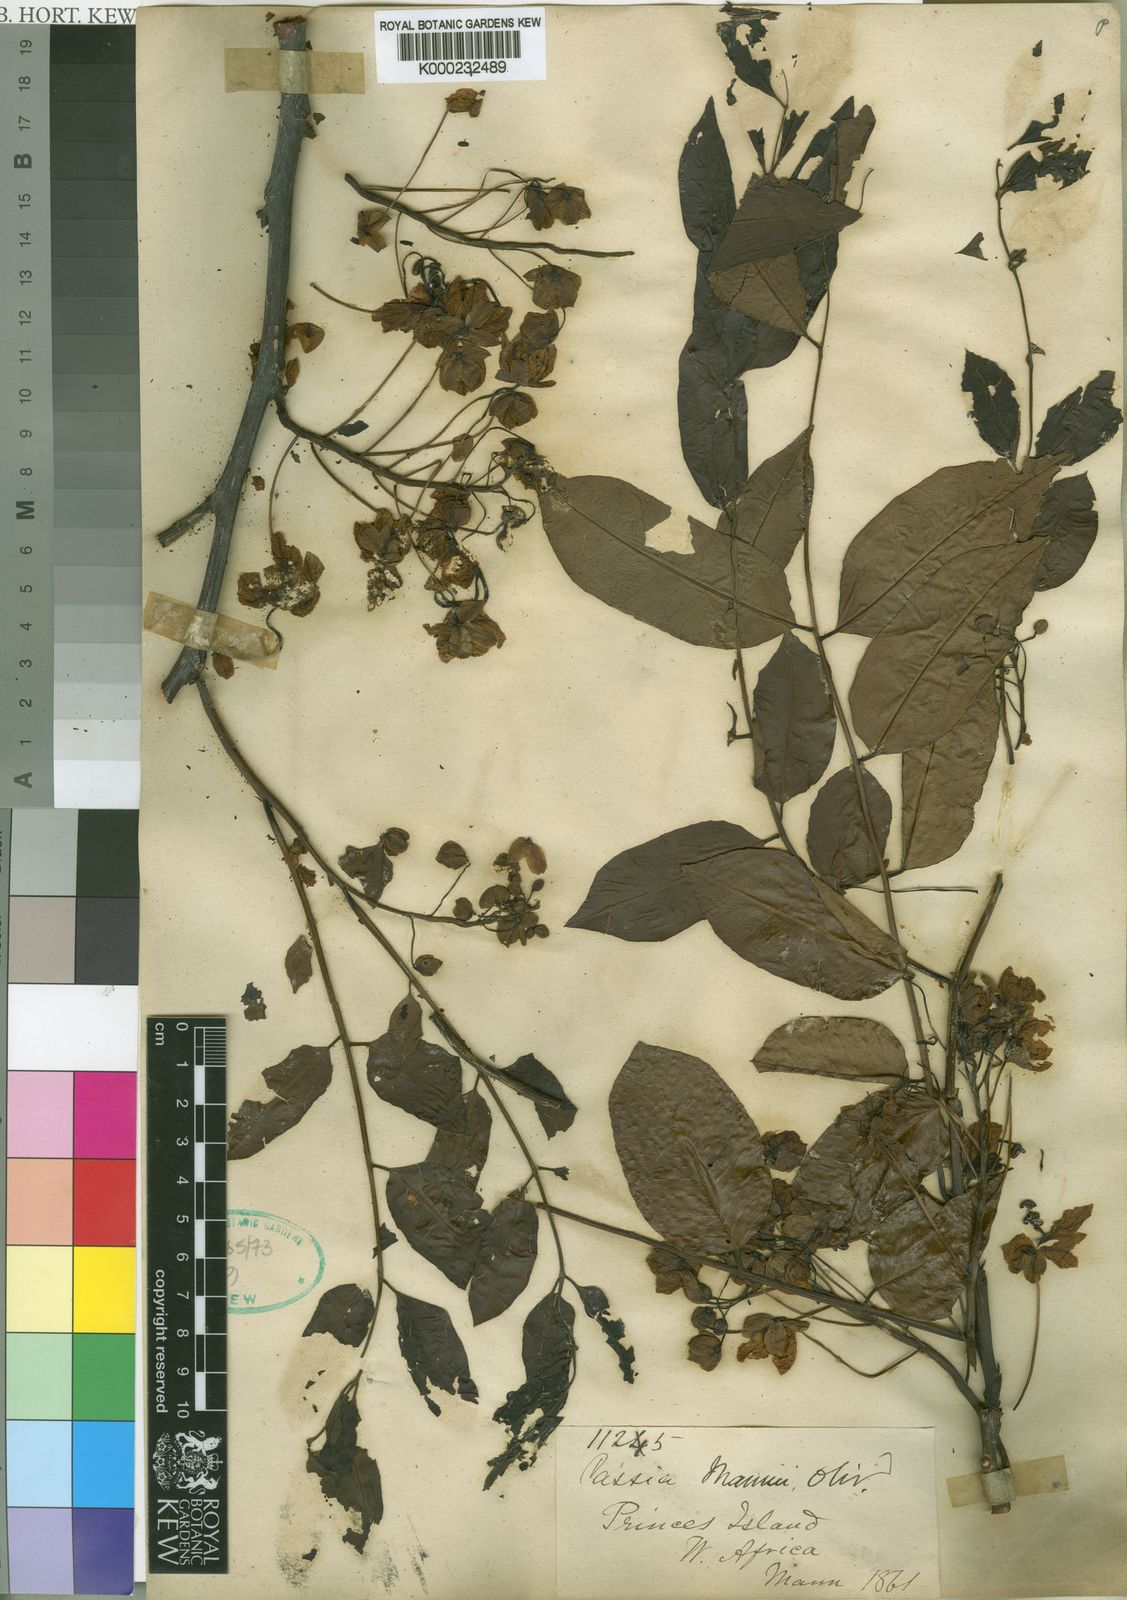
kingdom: Plantae
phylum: Tracheophyta
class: Magnoliopsida
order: Fabales
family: Fabaceae
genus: Cassia
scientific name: Cassia mannii
